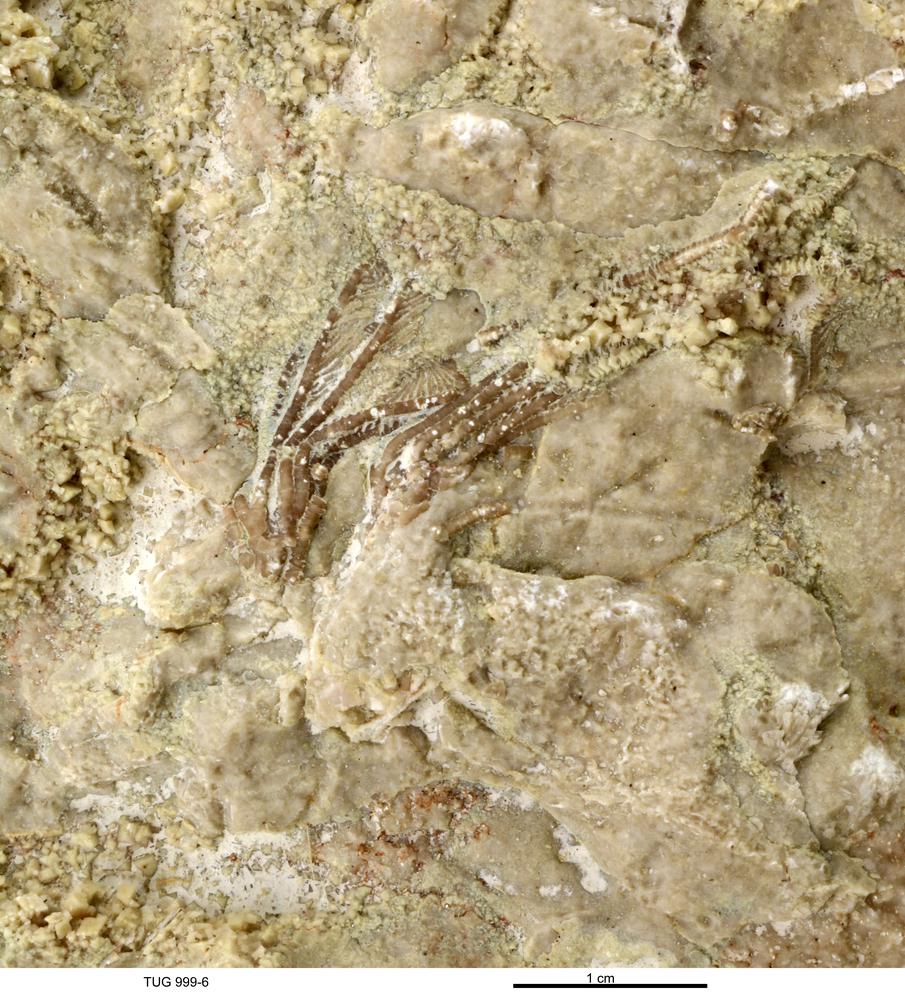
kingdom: Animalia
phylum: Echinodermata
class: Crinoidea
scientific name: Crinoidea
